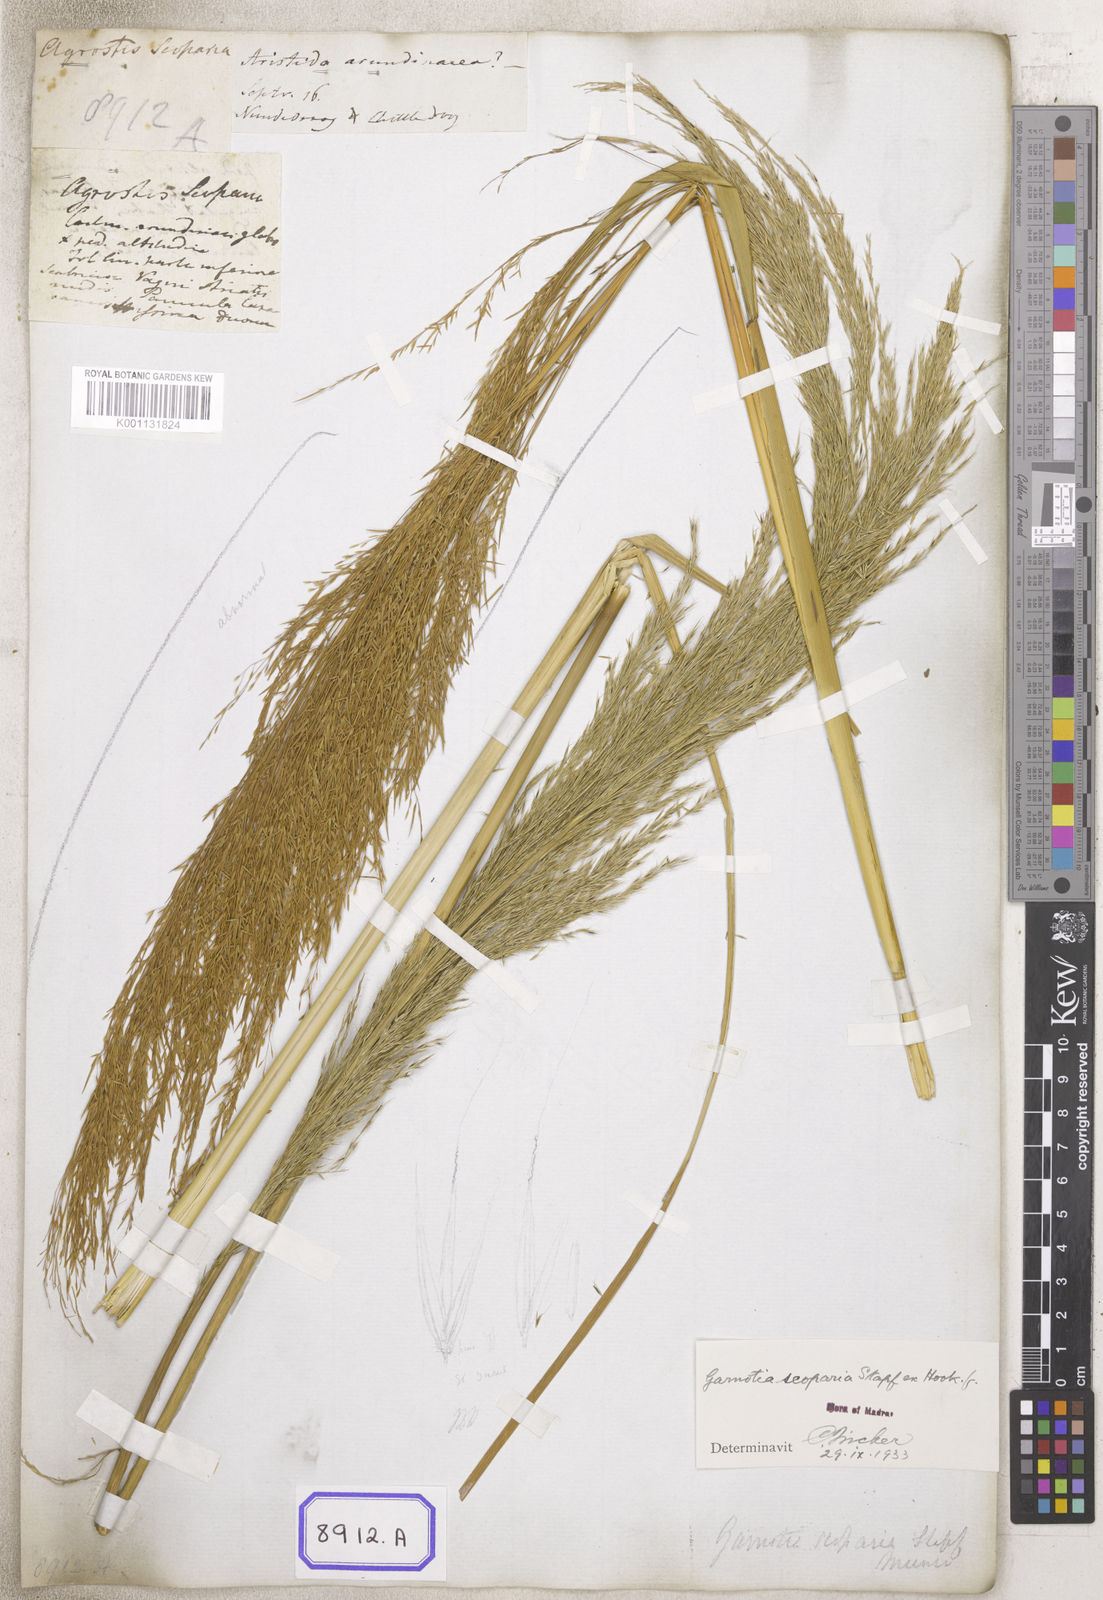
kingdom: Plantae
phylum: Tracheophyta
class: Liliopsida
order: Poales
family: Poaceae
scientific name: Poaceae
